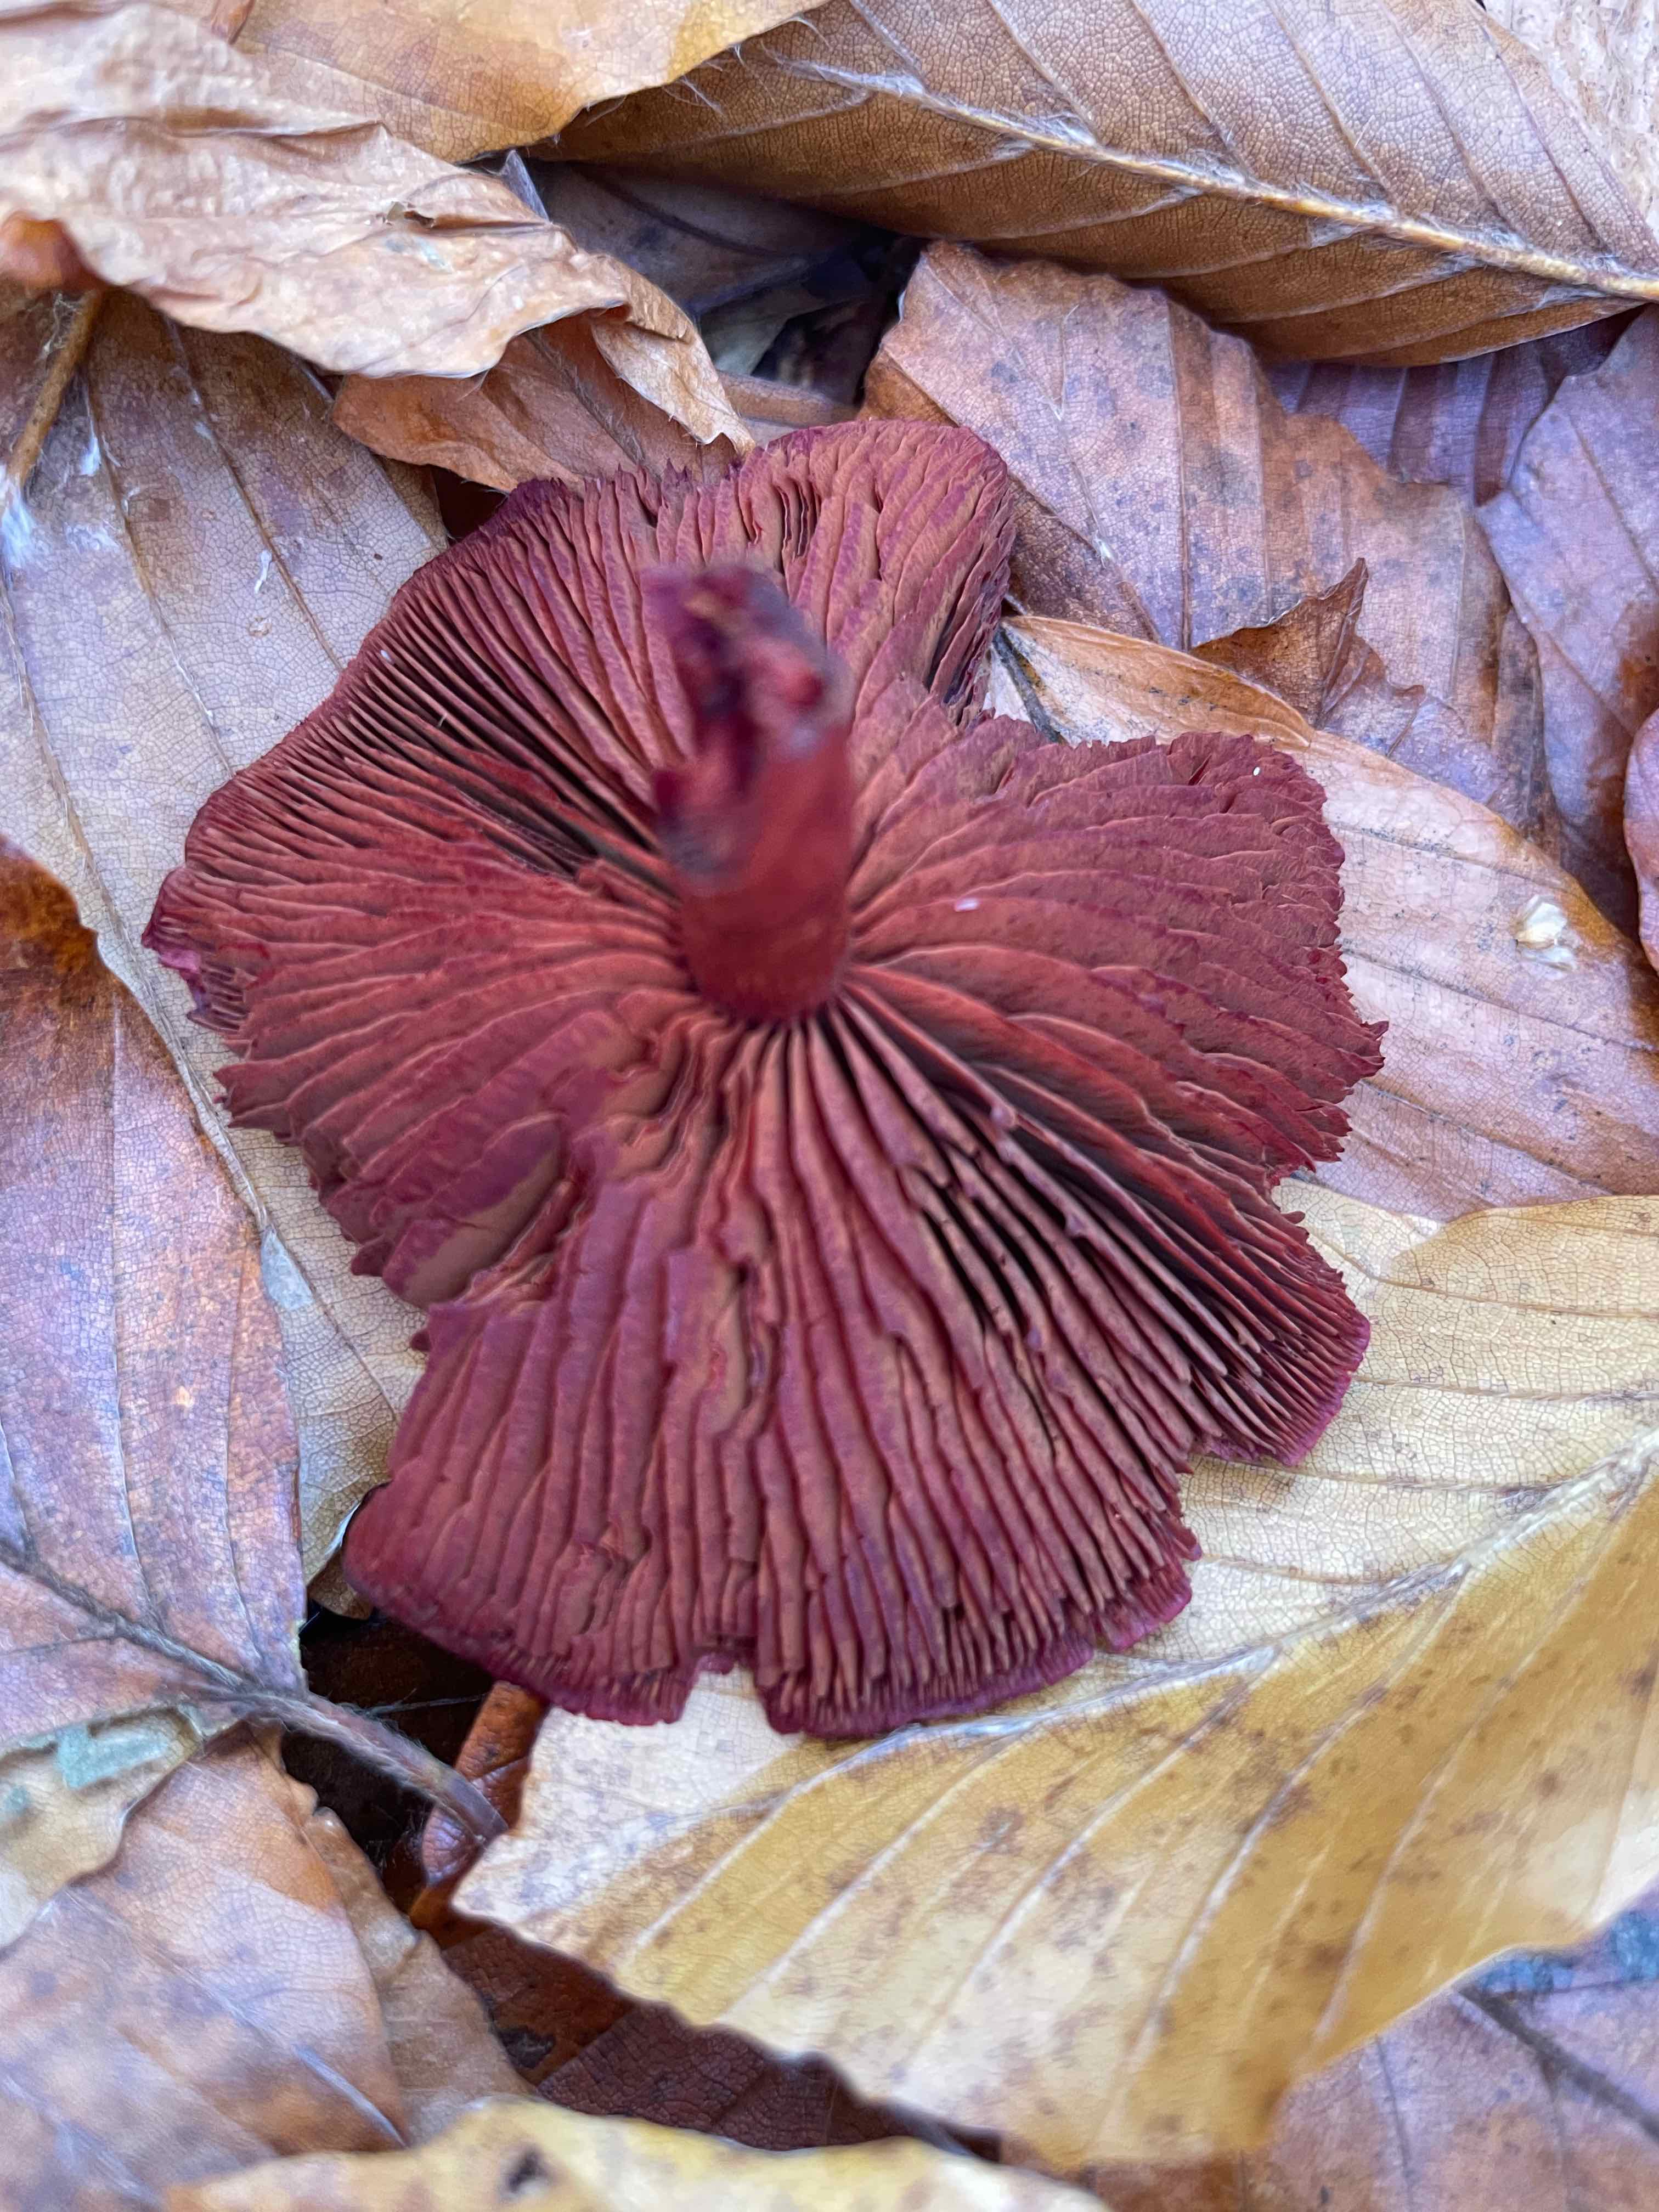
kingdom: Fungi
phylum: Basidiomycota
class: Agaricomycetes
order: Agaricales
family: Cortinariaceae
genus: Cortinarius
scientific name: Cortinarius sanguineus
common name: Bloodred webcap
